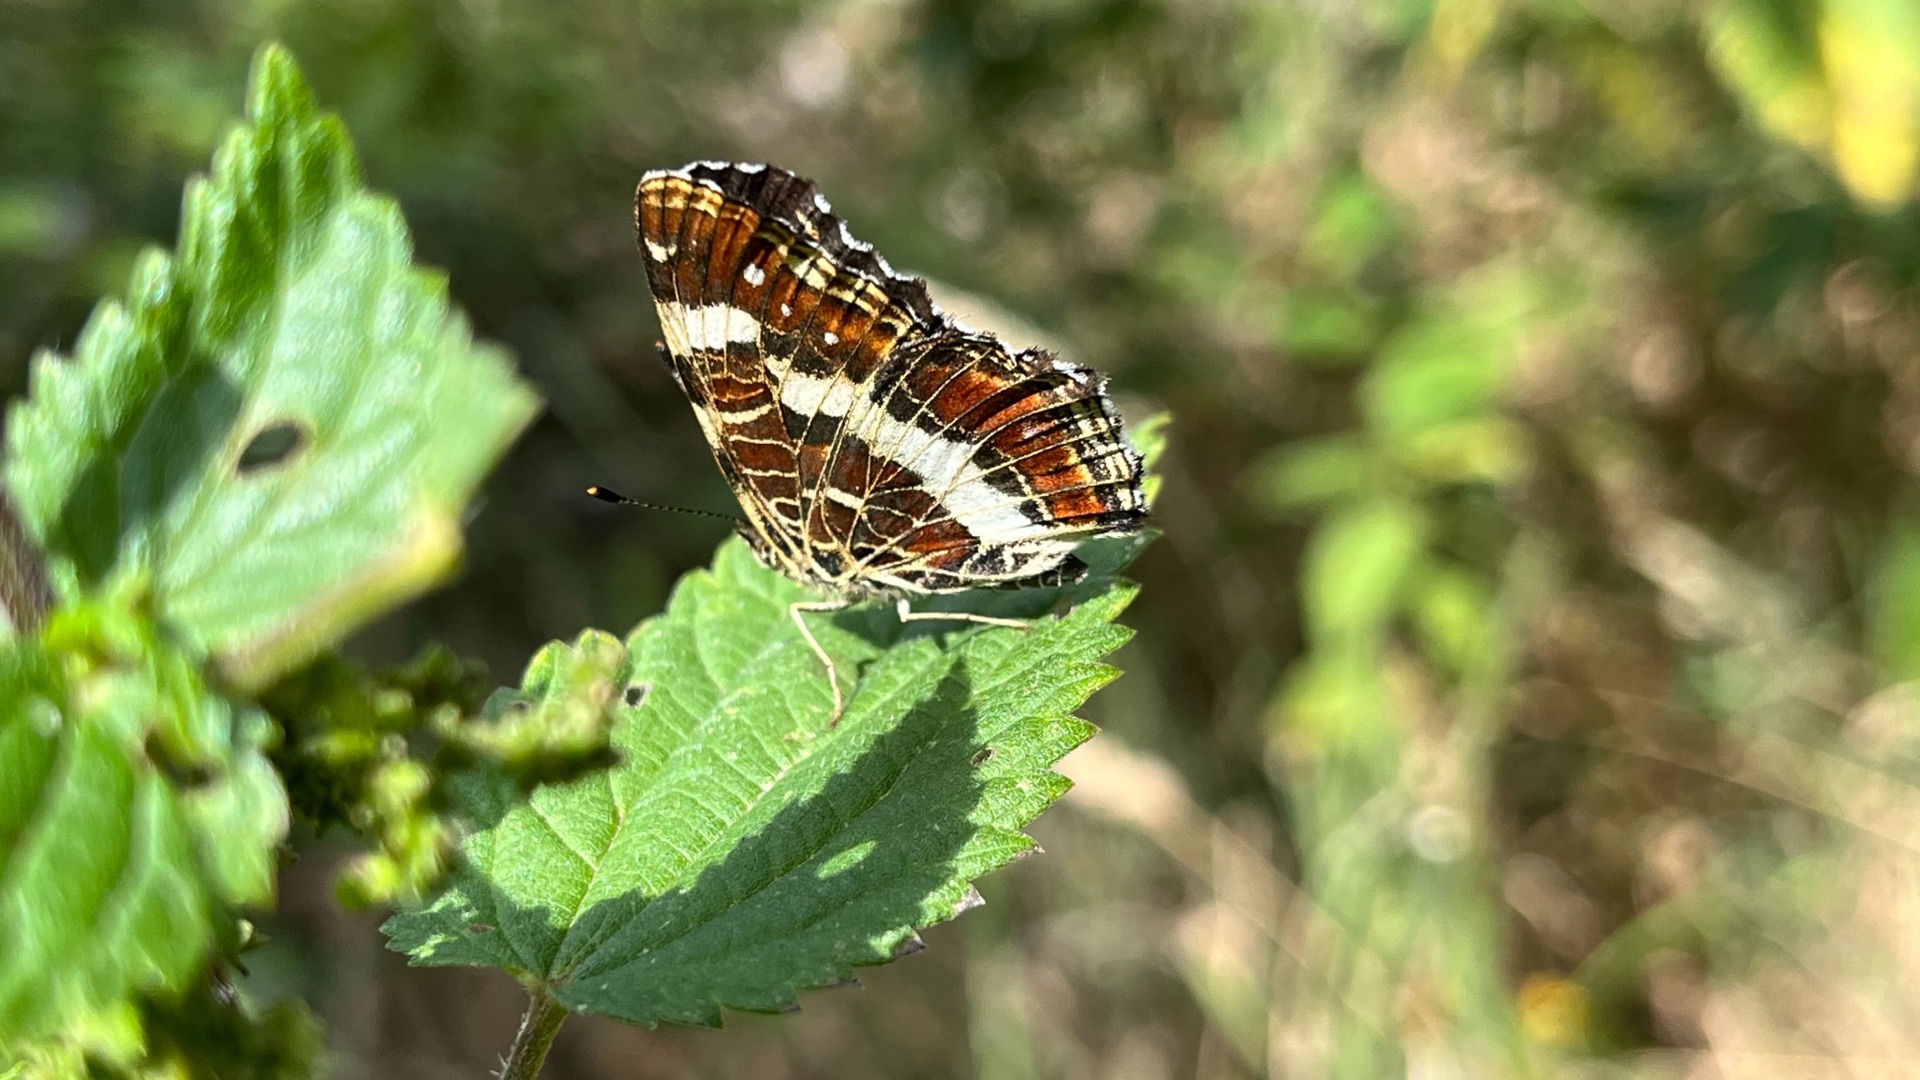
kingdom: Animalia
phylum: Arthropoda
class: Insecta
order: Lepidoptera
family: Nymphalidae
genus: Araschnia
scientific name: Araschnia levana
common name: Nældesommerfugl
